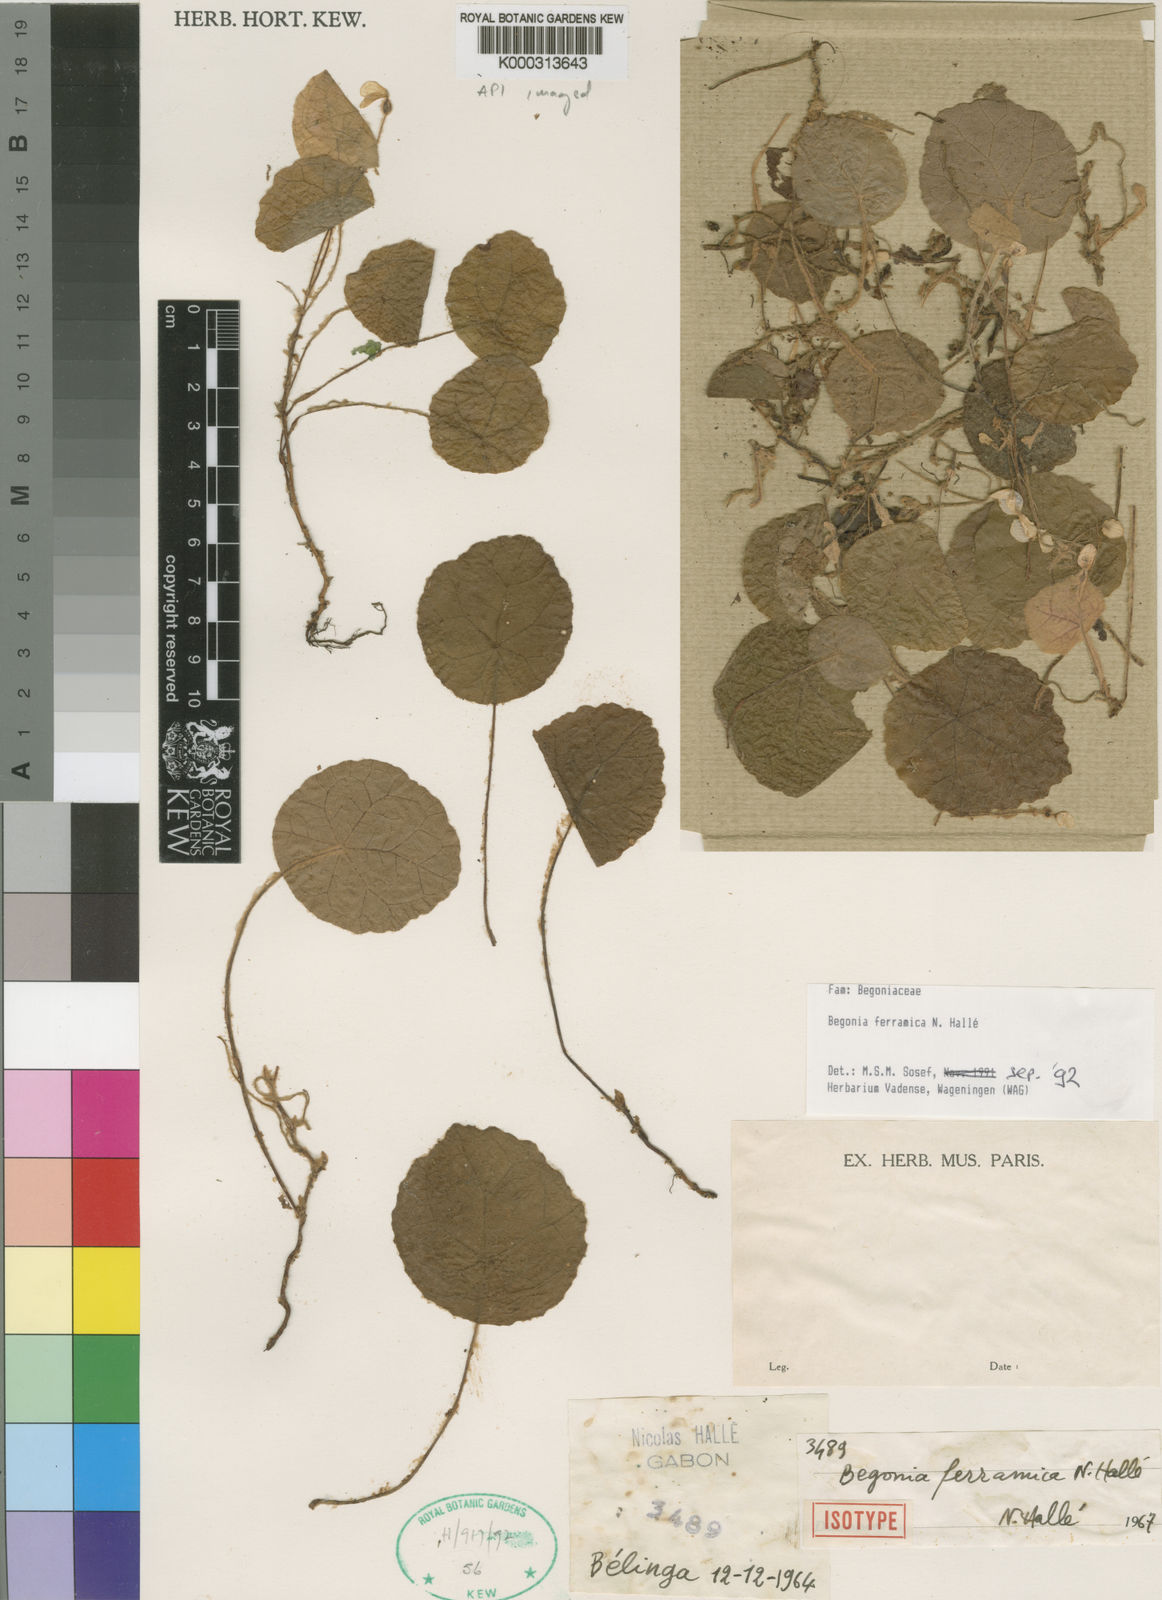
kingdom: Plantae
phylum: Tracheophyta
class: Magnoliopsida
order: Cucurbitales
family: Begoniaceae
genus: Begonia
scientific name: Begonia ferramica
